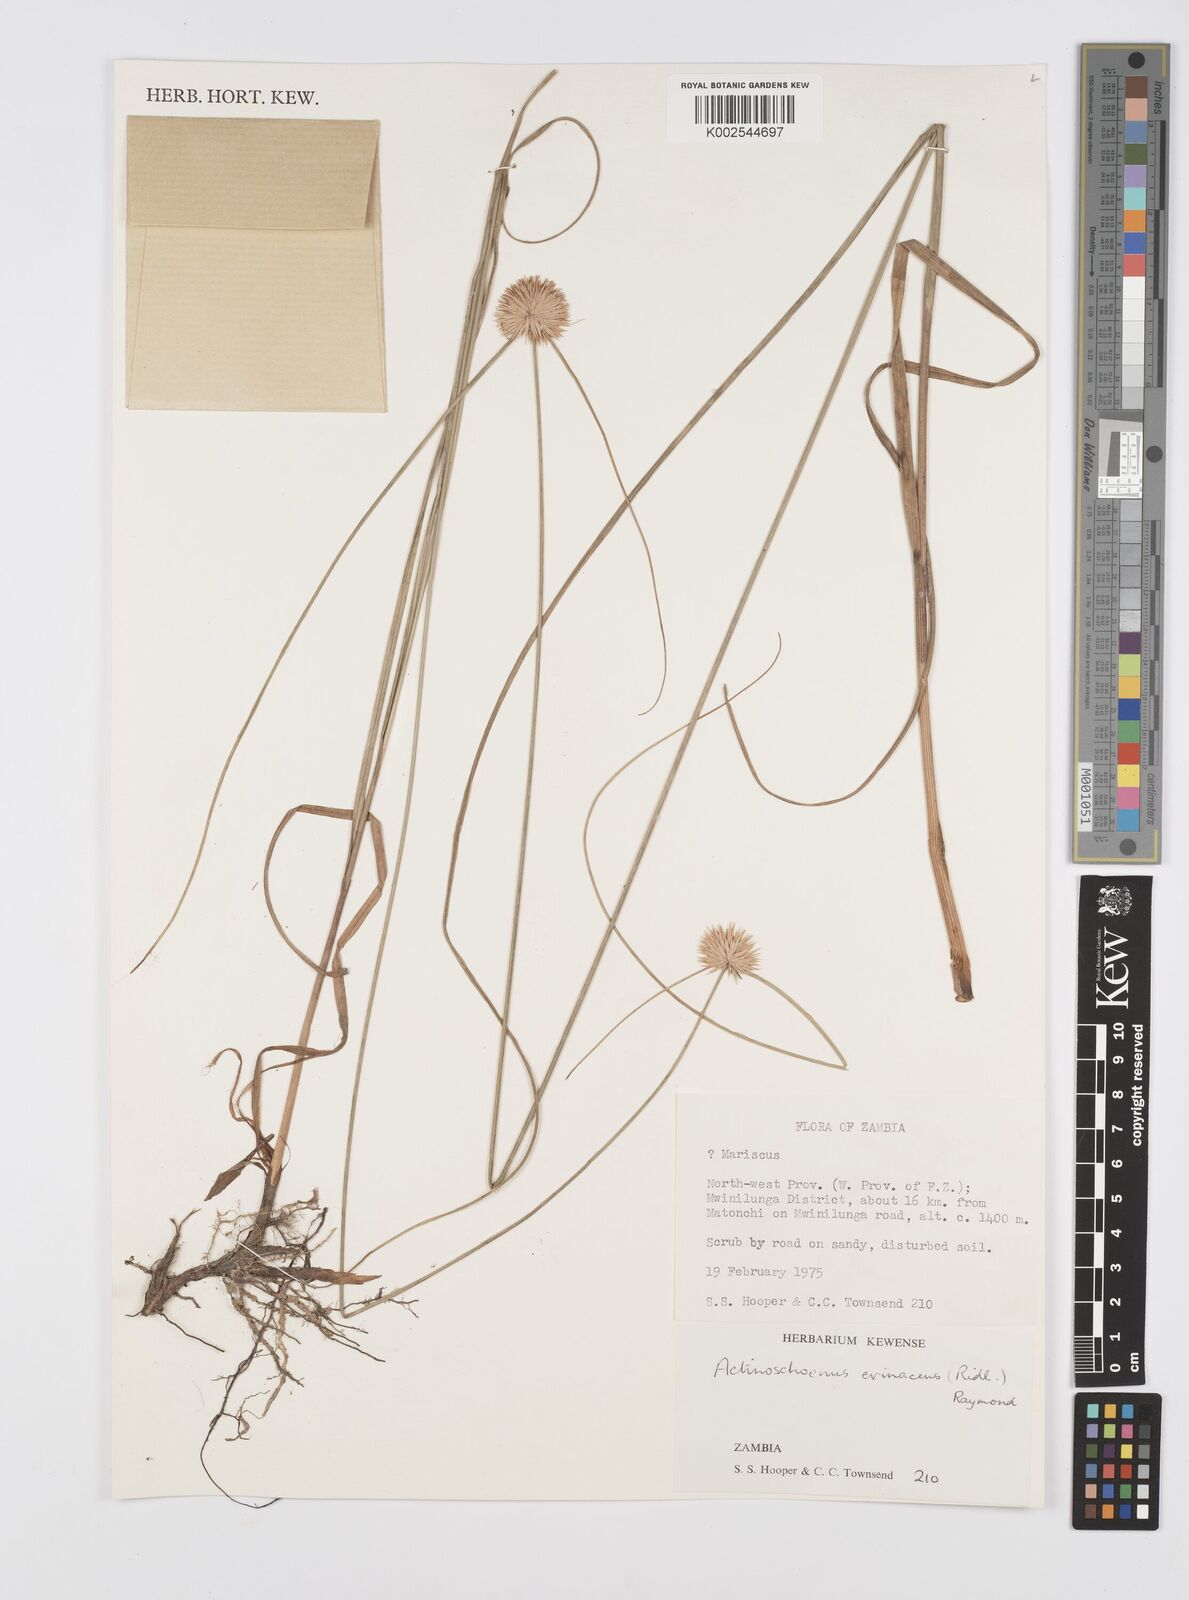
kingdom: Plantae
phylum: Tracheophyta
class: Liliopsida
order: Poales
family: Cyperaceae
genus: Cyperus
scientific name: Cyperus erinaceus
